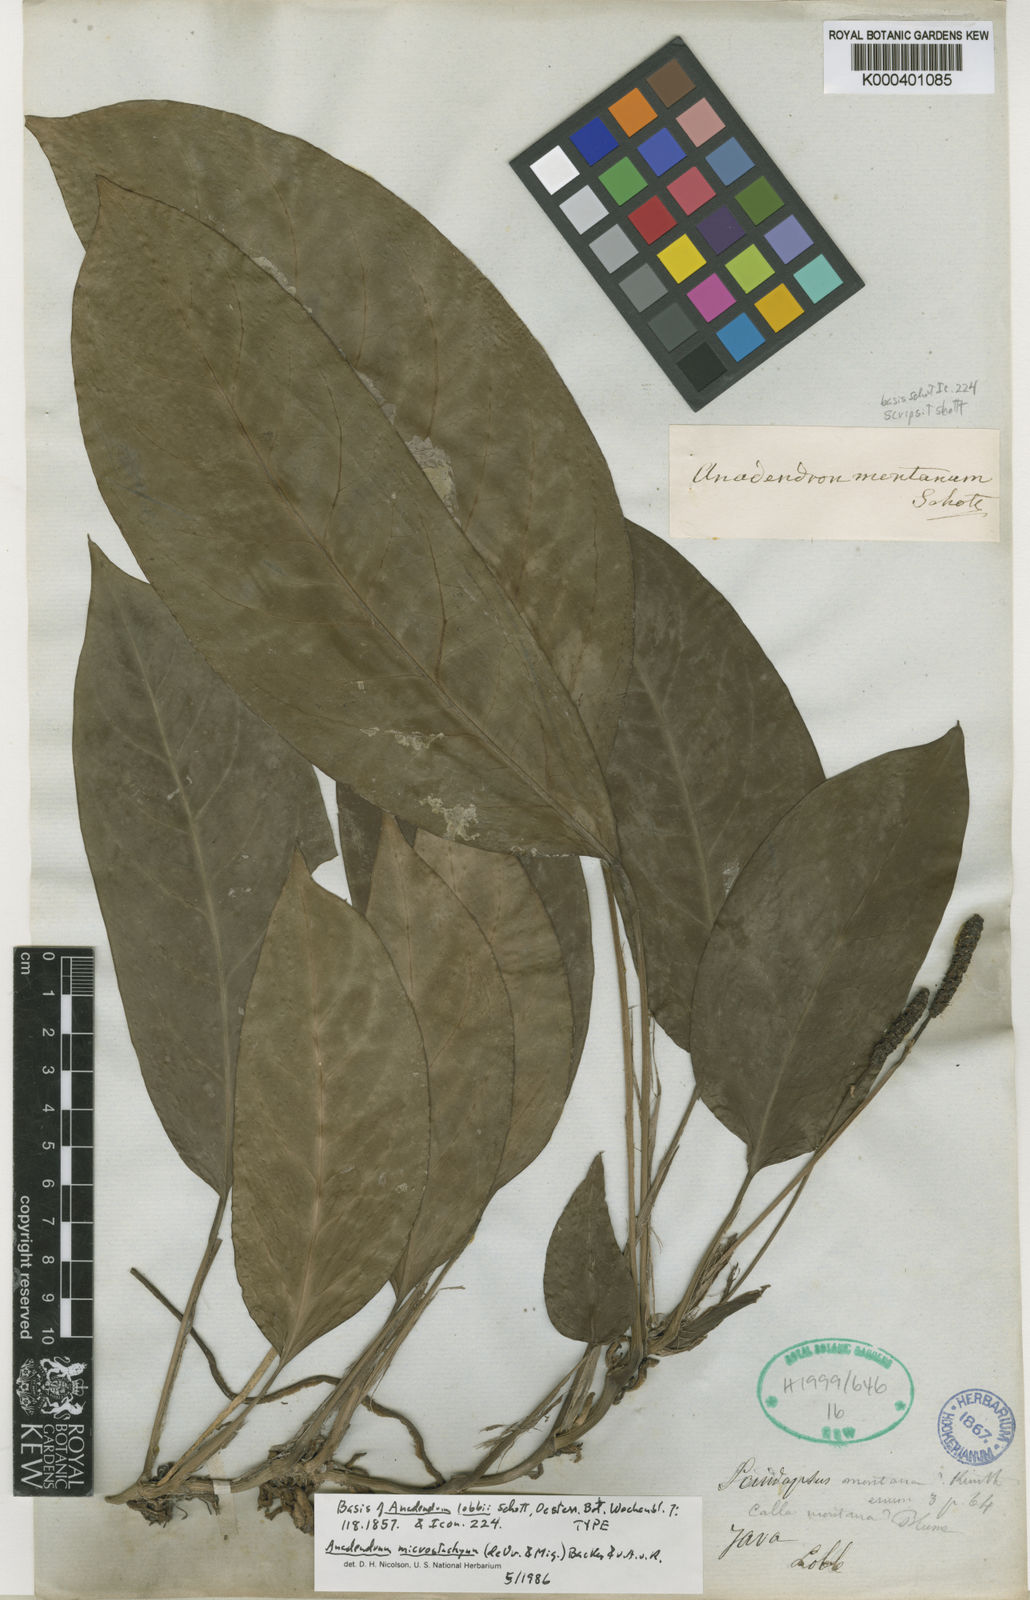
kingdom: Plantae
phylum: Tracheophyta
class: Liliopsida
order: Alismatales
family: Araceae
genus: Anadendrum
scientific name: Anadendrum microstachyum
